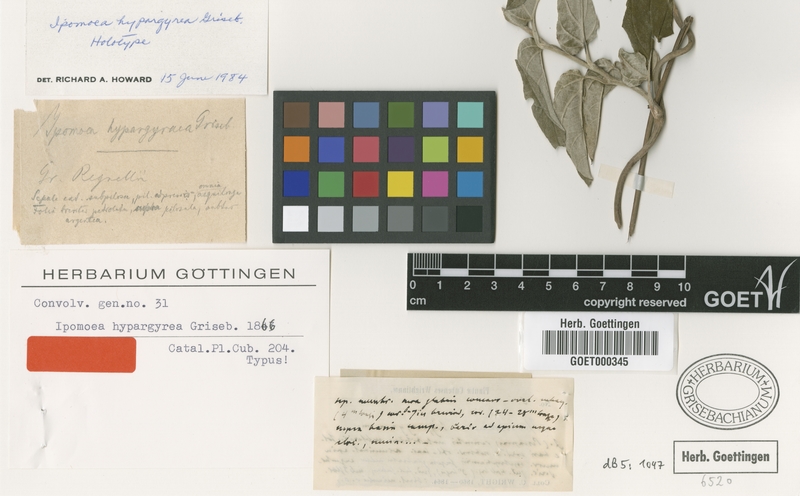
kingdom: Plantae
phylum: Tracheophyta
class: Magnoliopsida
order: Solanales
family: Convolvulaceae
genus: Ipomoea
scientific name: Ipomoea hypargyrea
